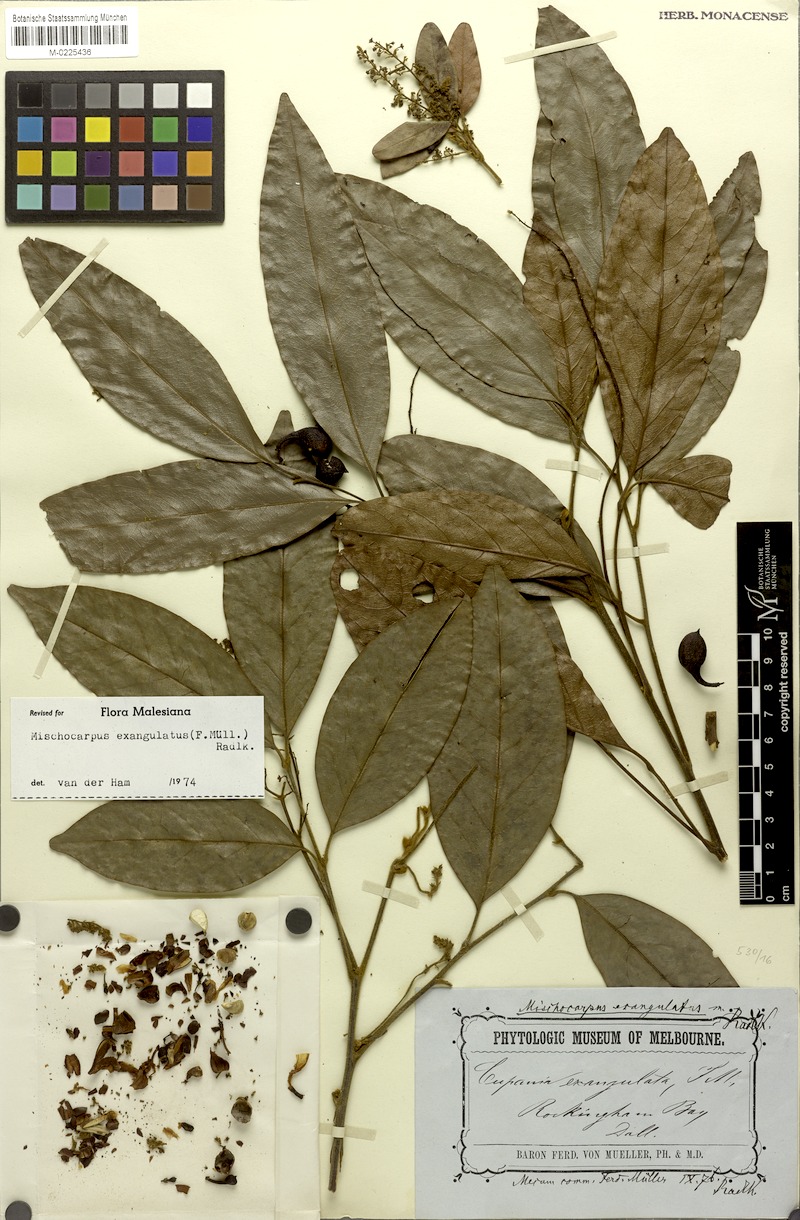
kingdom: Plantae
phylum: Tracheophyta
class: Magnoliopsida
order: Sapindales
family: Sapindaceae
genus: Mischocarpus
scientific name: Mischocarpus exangulatus
